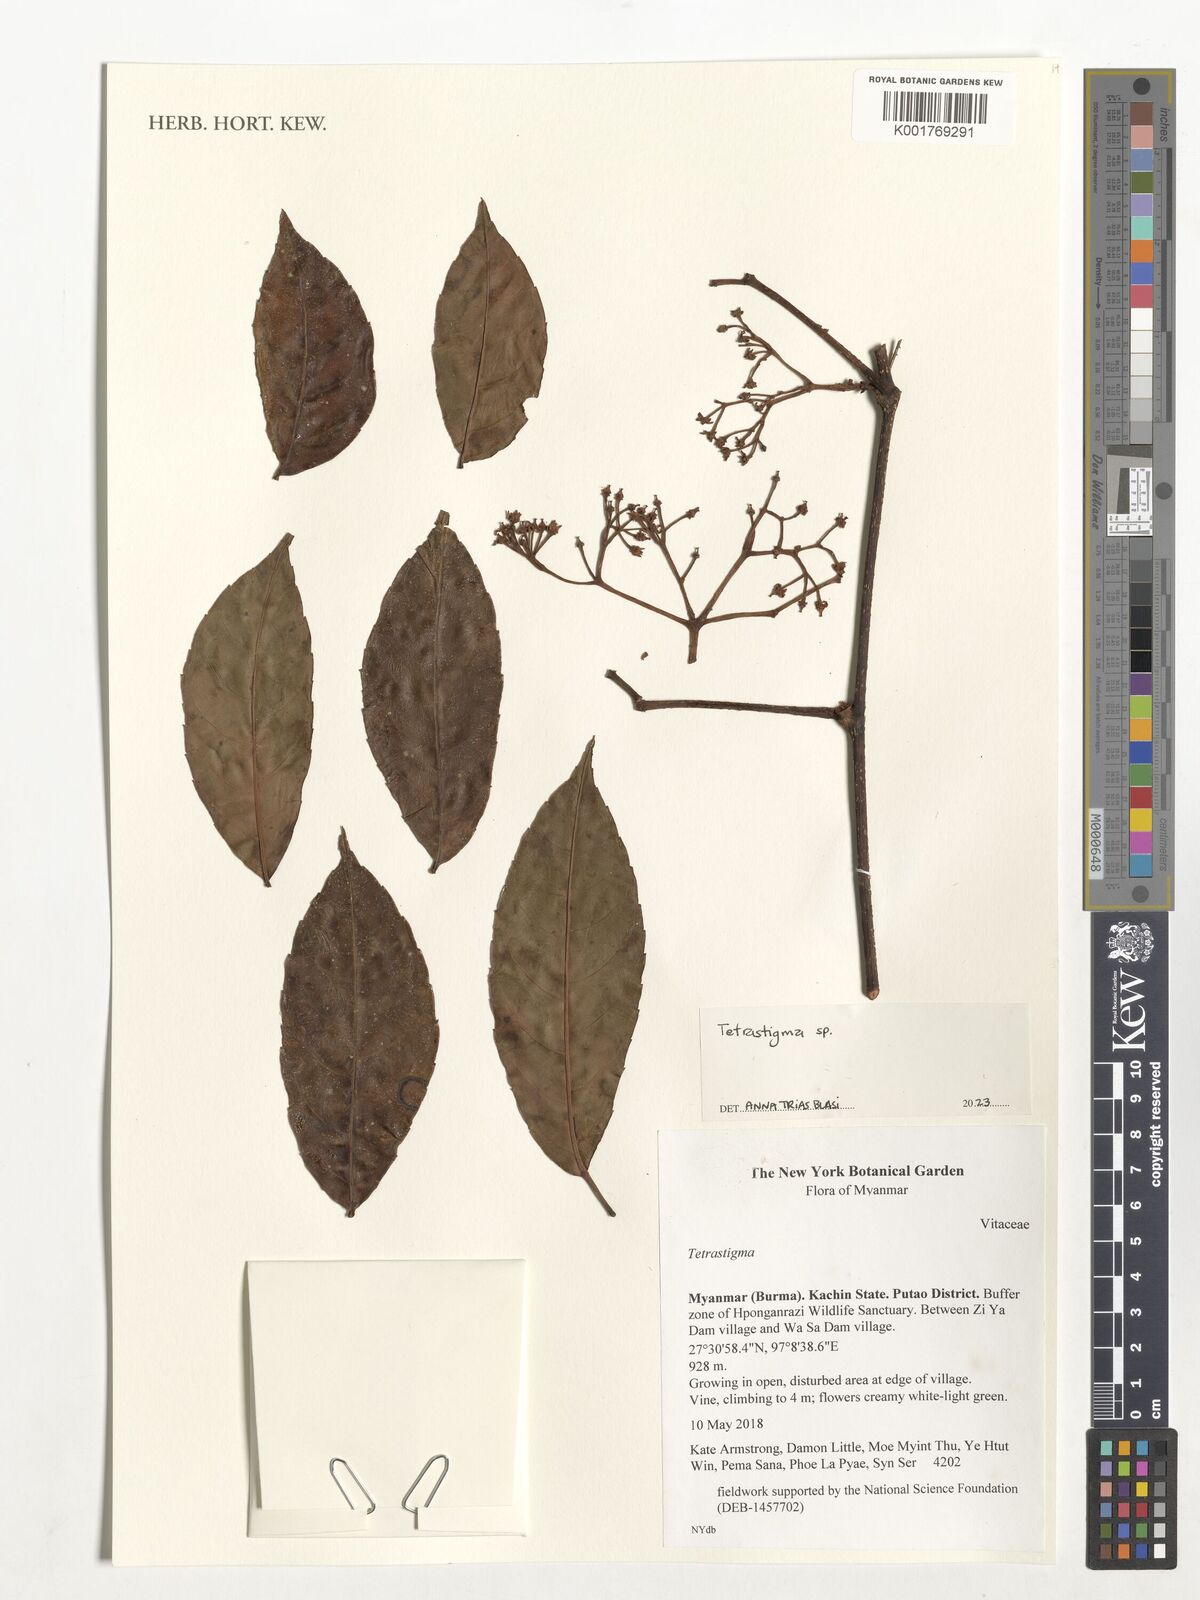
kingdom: Plantae
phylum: Tracheophyta
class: Magnoliopsida
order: Vitales
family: Vitaceae
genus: Tetrastigma
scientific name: Tetrastigma
